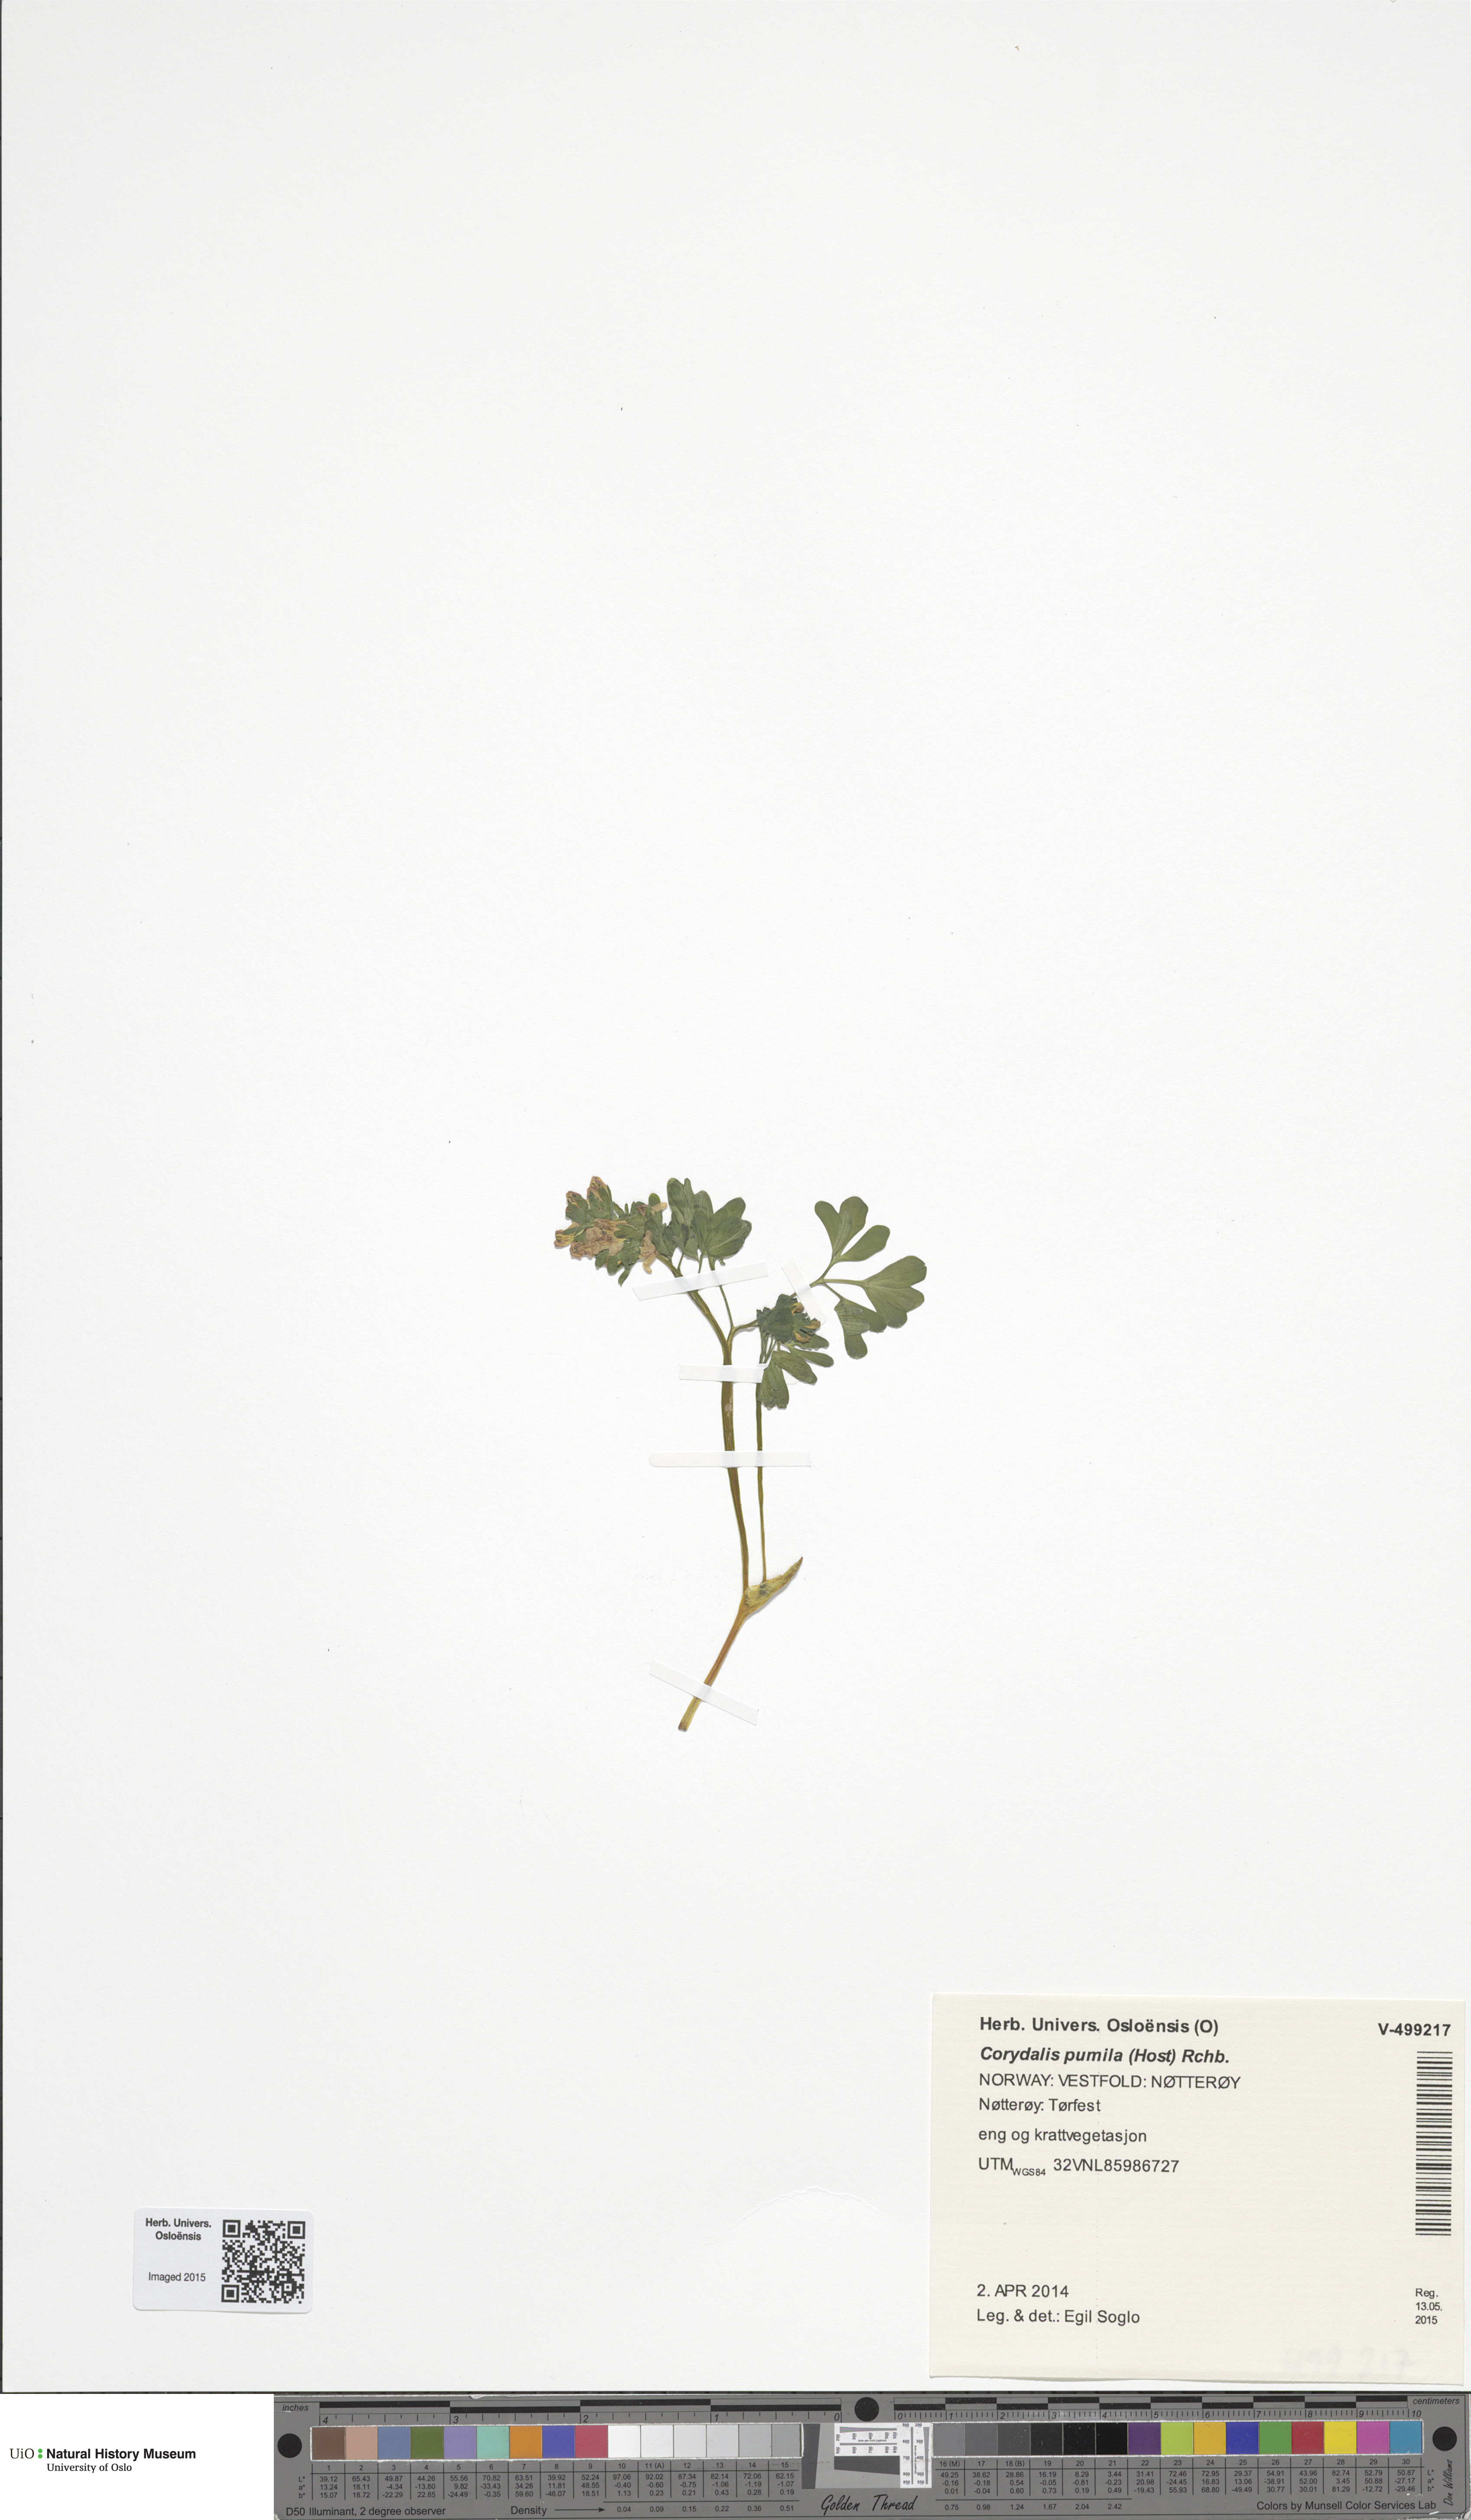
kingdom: Plantae
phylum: Tracheophyta
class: Magnoliopsida
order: Ranunculales
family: Papaveraceae
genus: Corydalis
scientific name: Corydalis pumila
